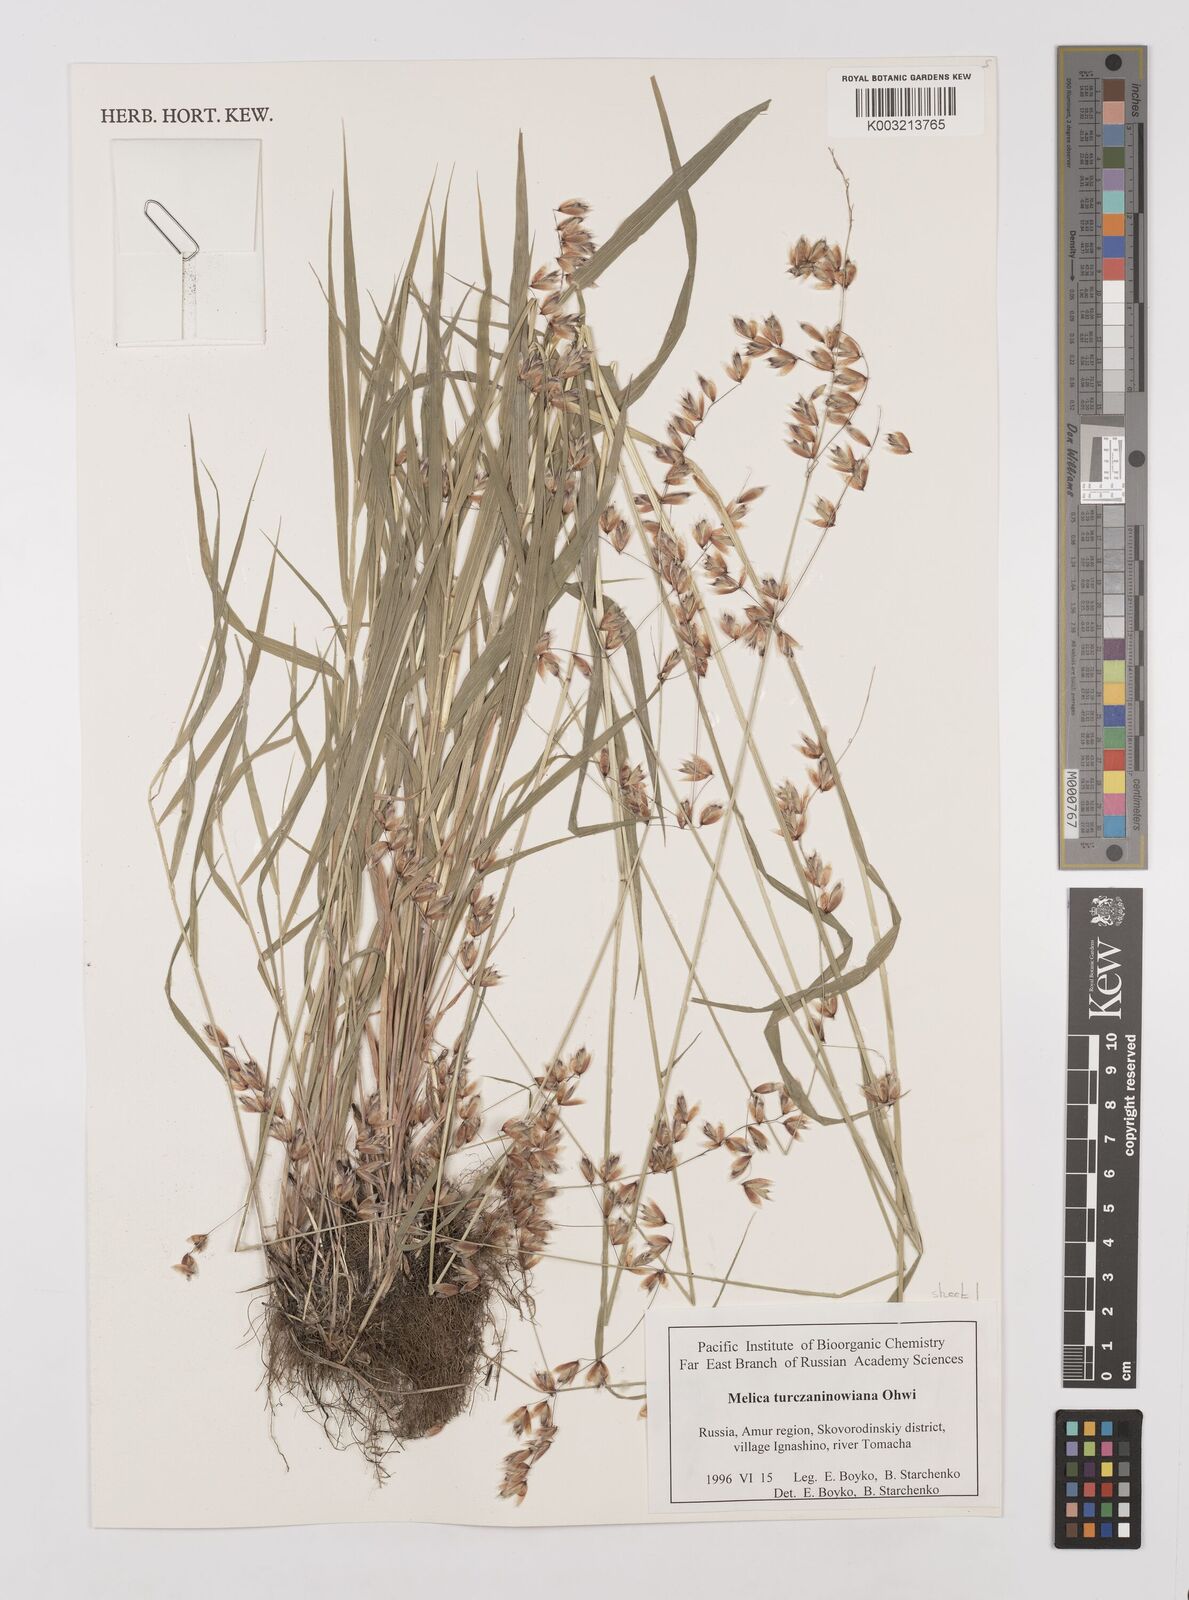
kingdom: Plantae
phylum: Tracheophyta
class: Liliopsida
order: Poales
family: Poaceae
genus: Melica
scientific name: Melica turczaninowiana
